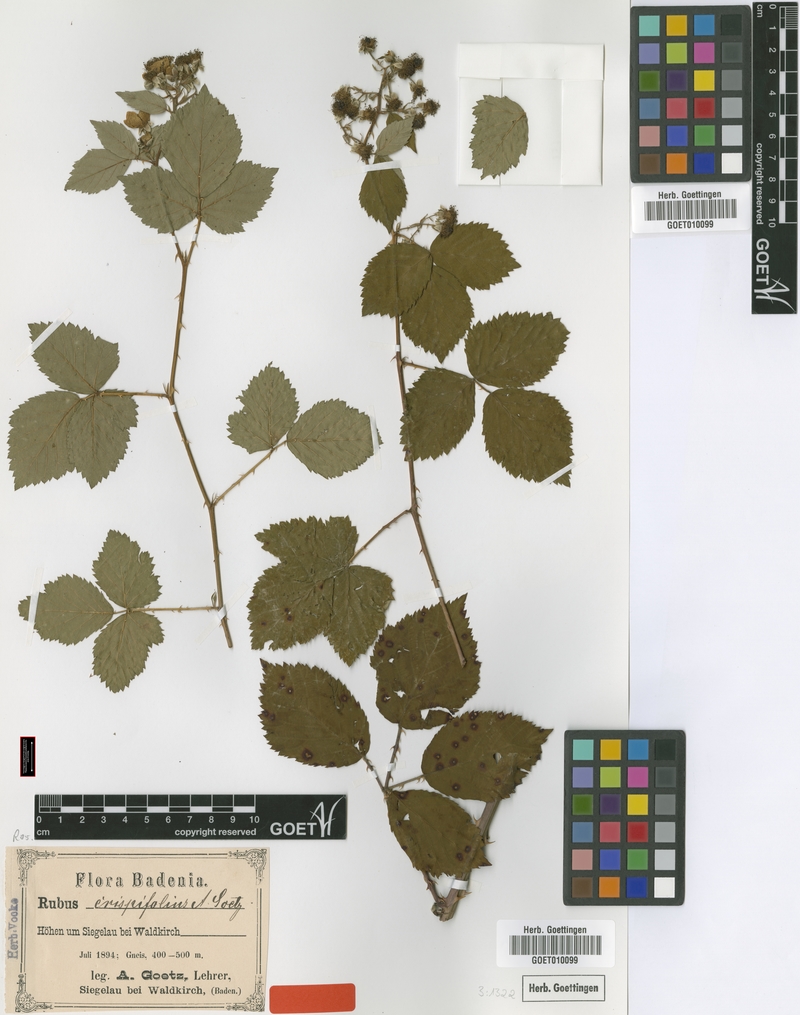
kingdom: Plantae
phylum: Tracheophyta
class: Magnoliopsida
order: Rosales
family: Rosaceae
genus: Rubus
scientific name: Rubus crispifolius
